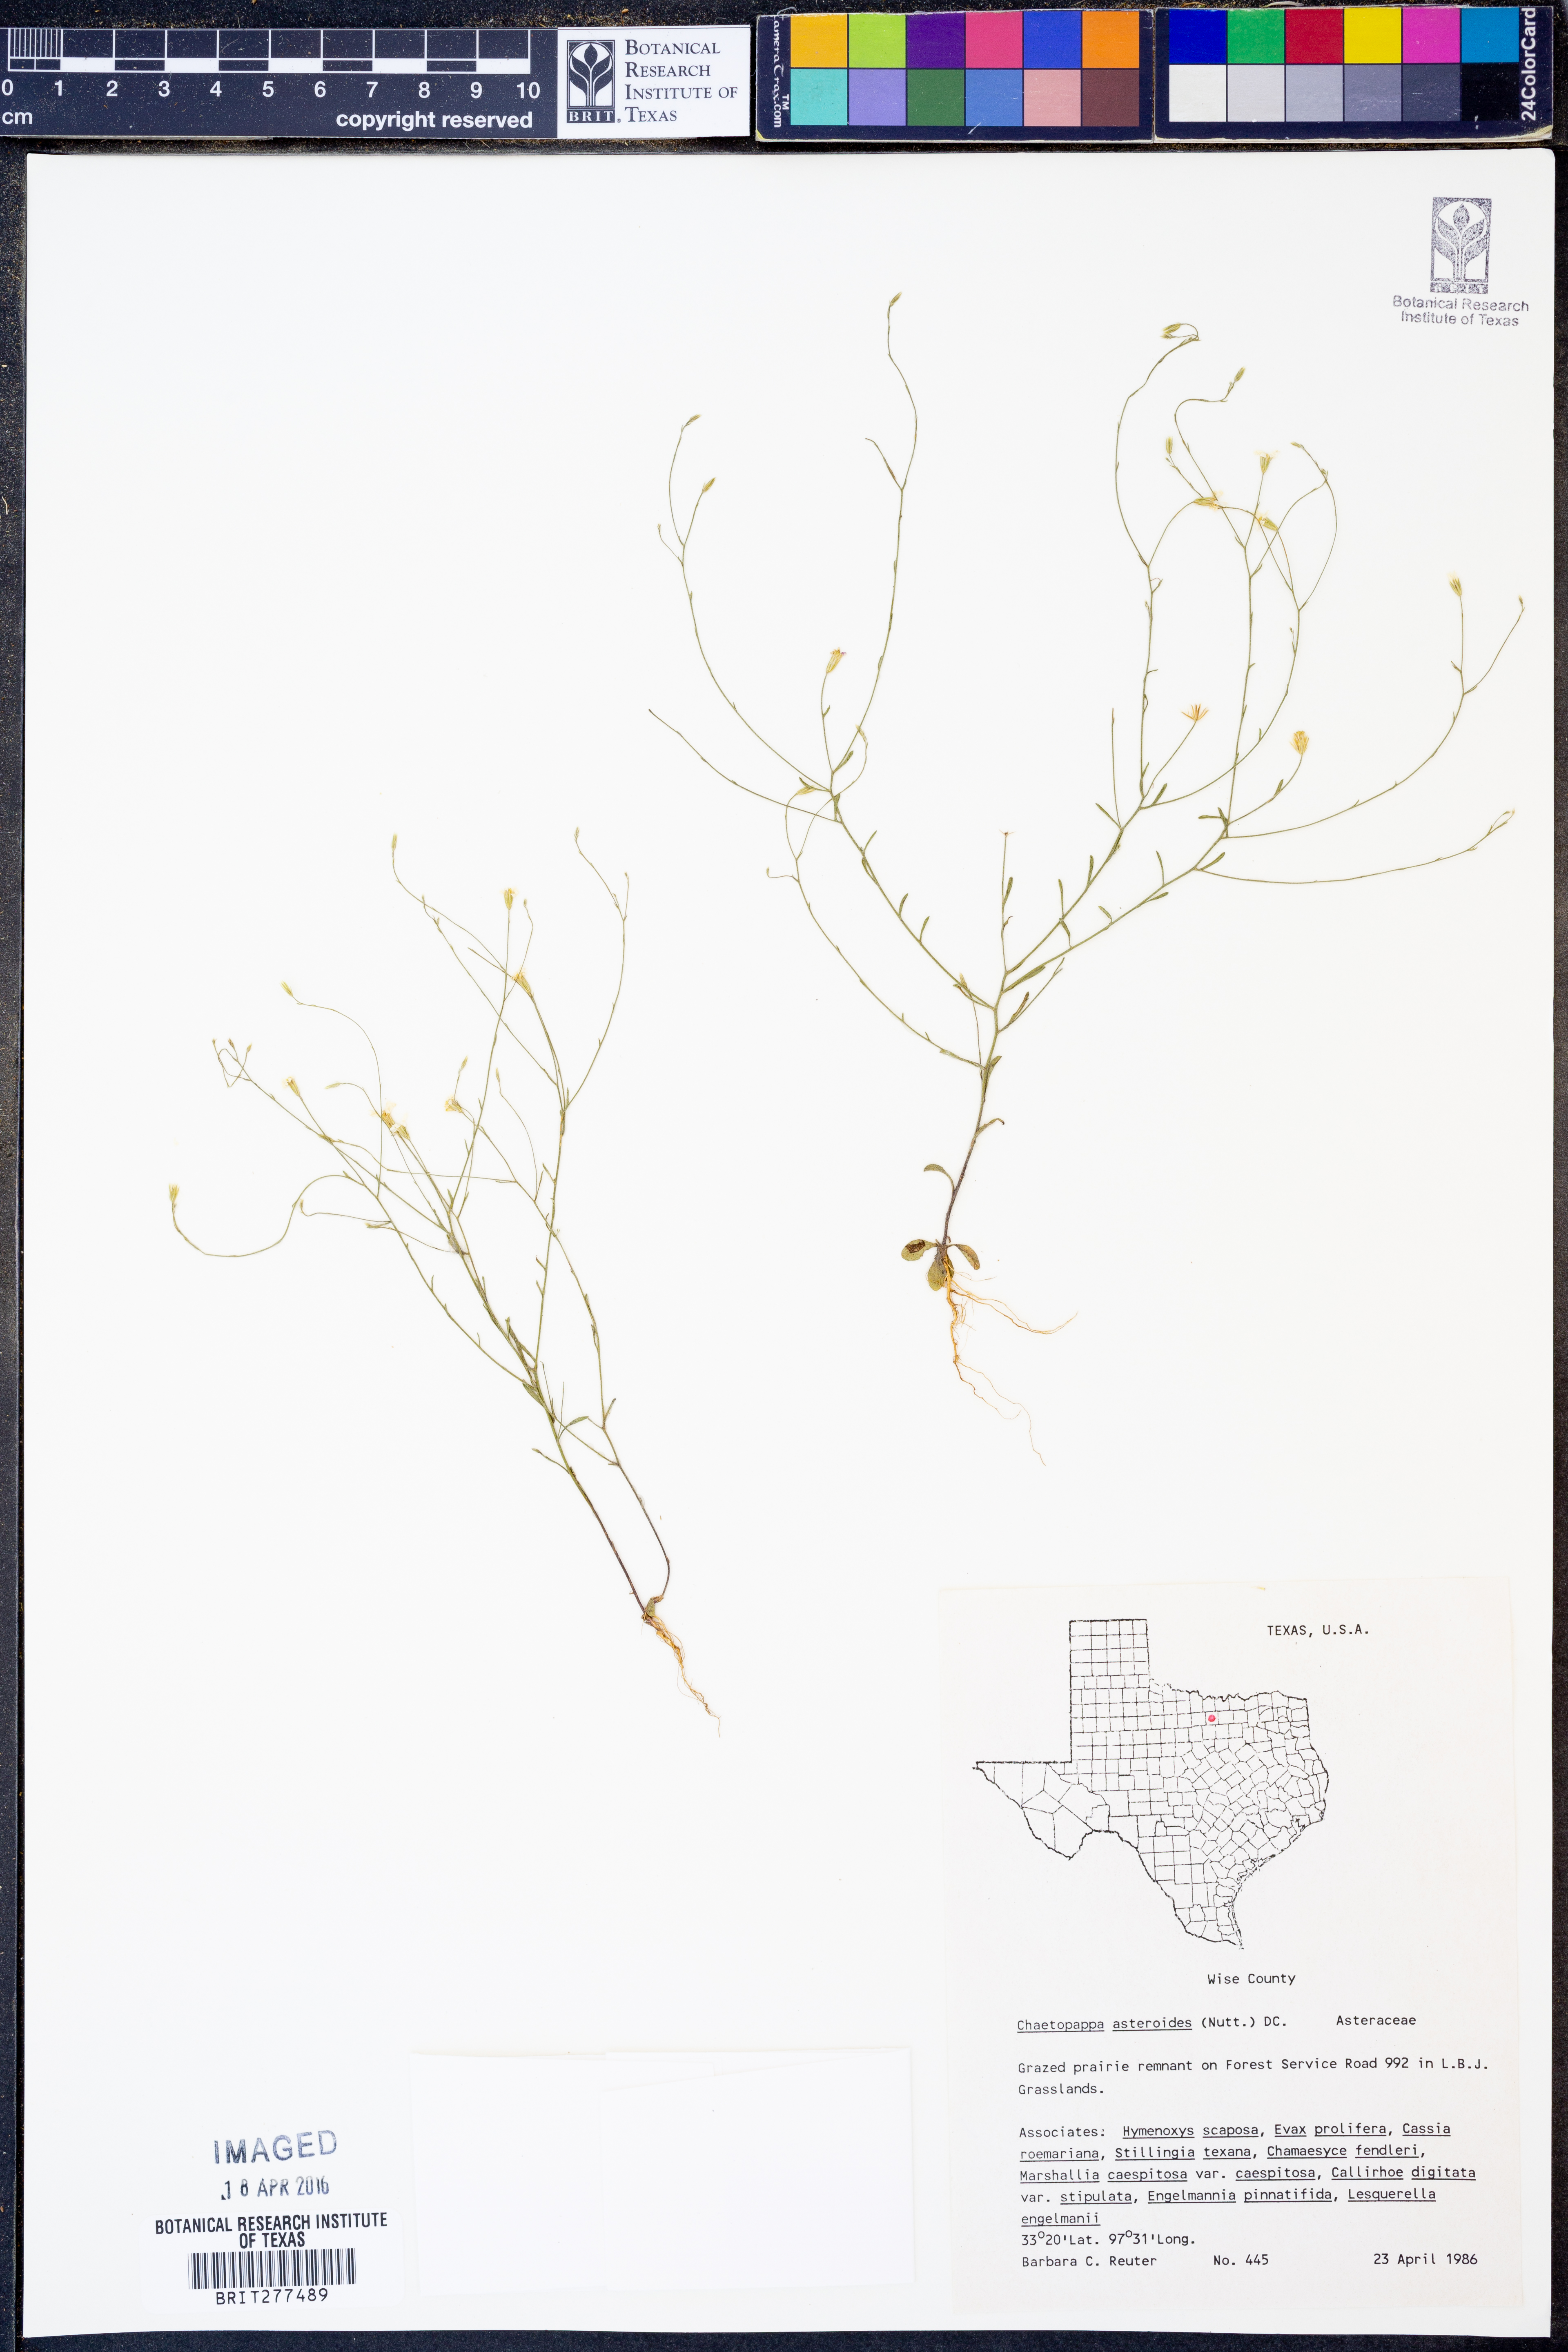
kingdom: Plantae
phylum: Tracheophyta
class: Magnoliopsida
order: Asterales
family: Asteraceae
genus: Chaetopappa
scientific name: Chaetopappa asteroides
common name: Tiny lazy daisy
